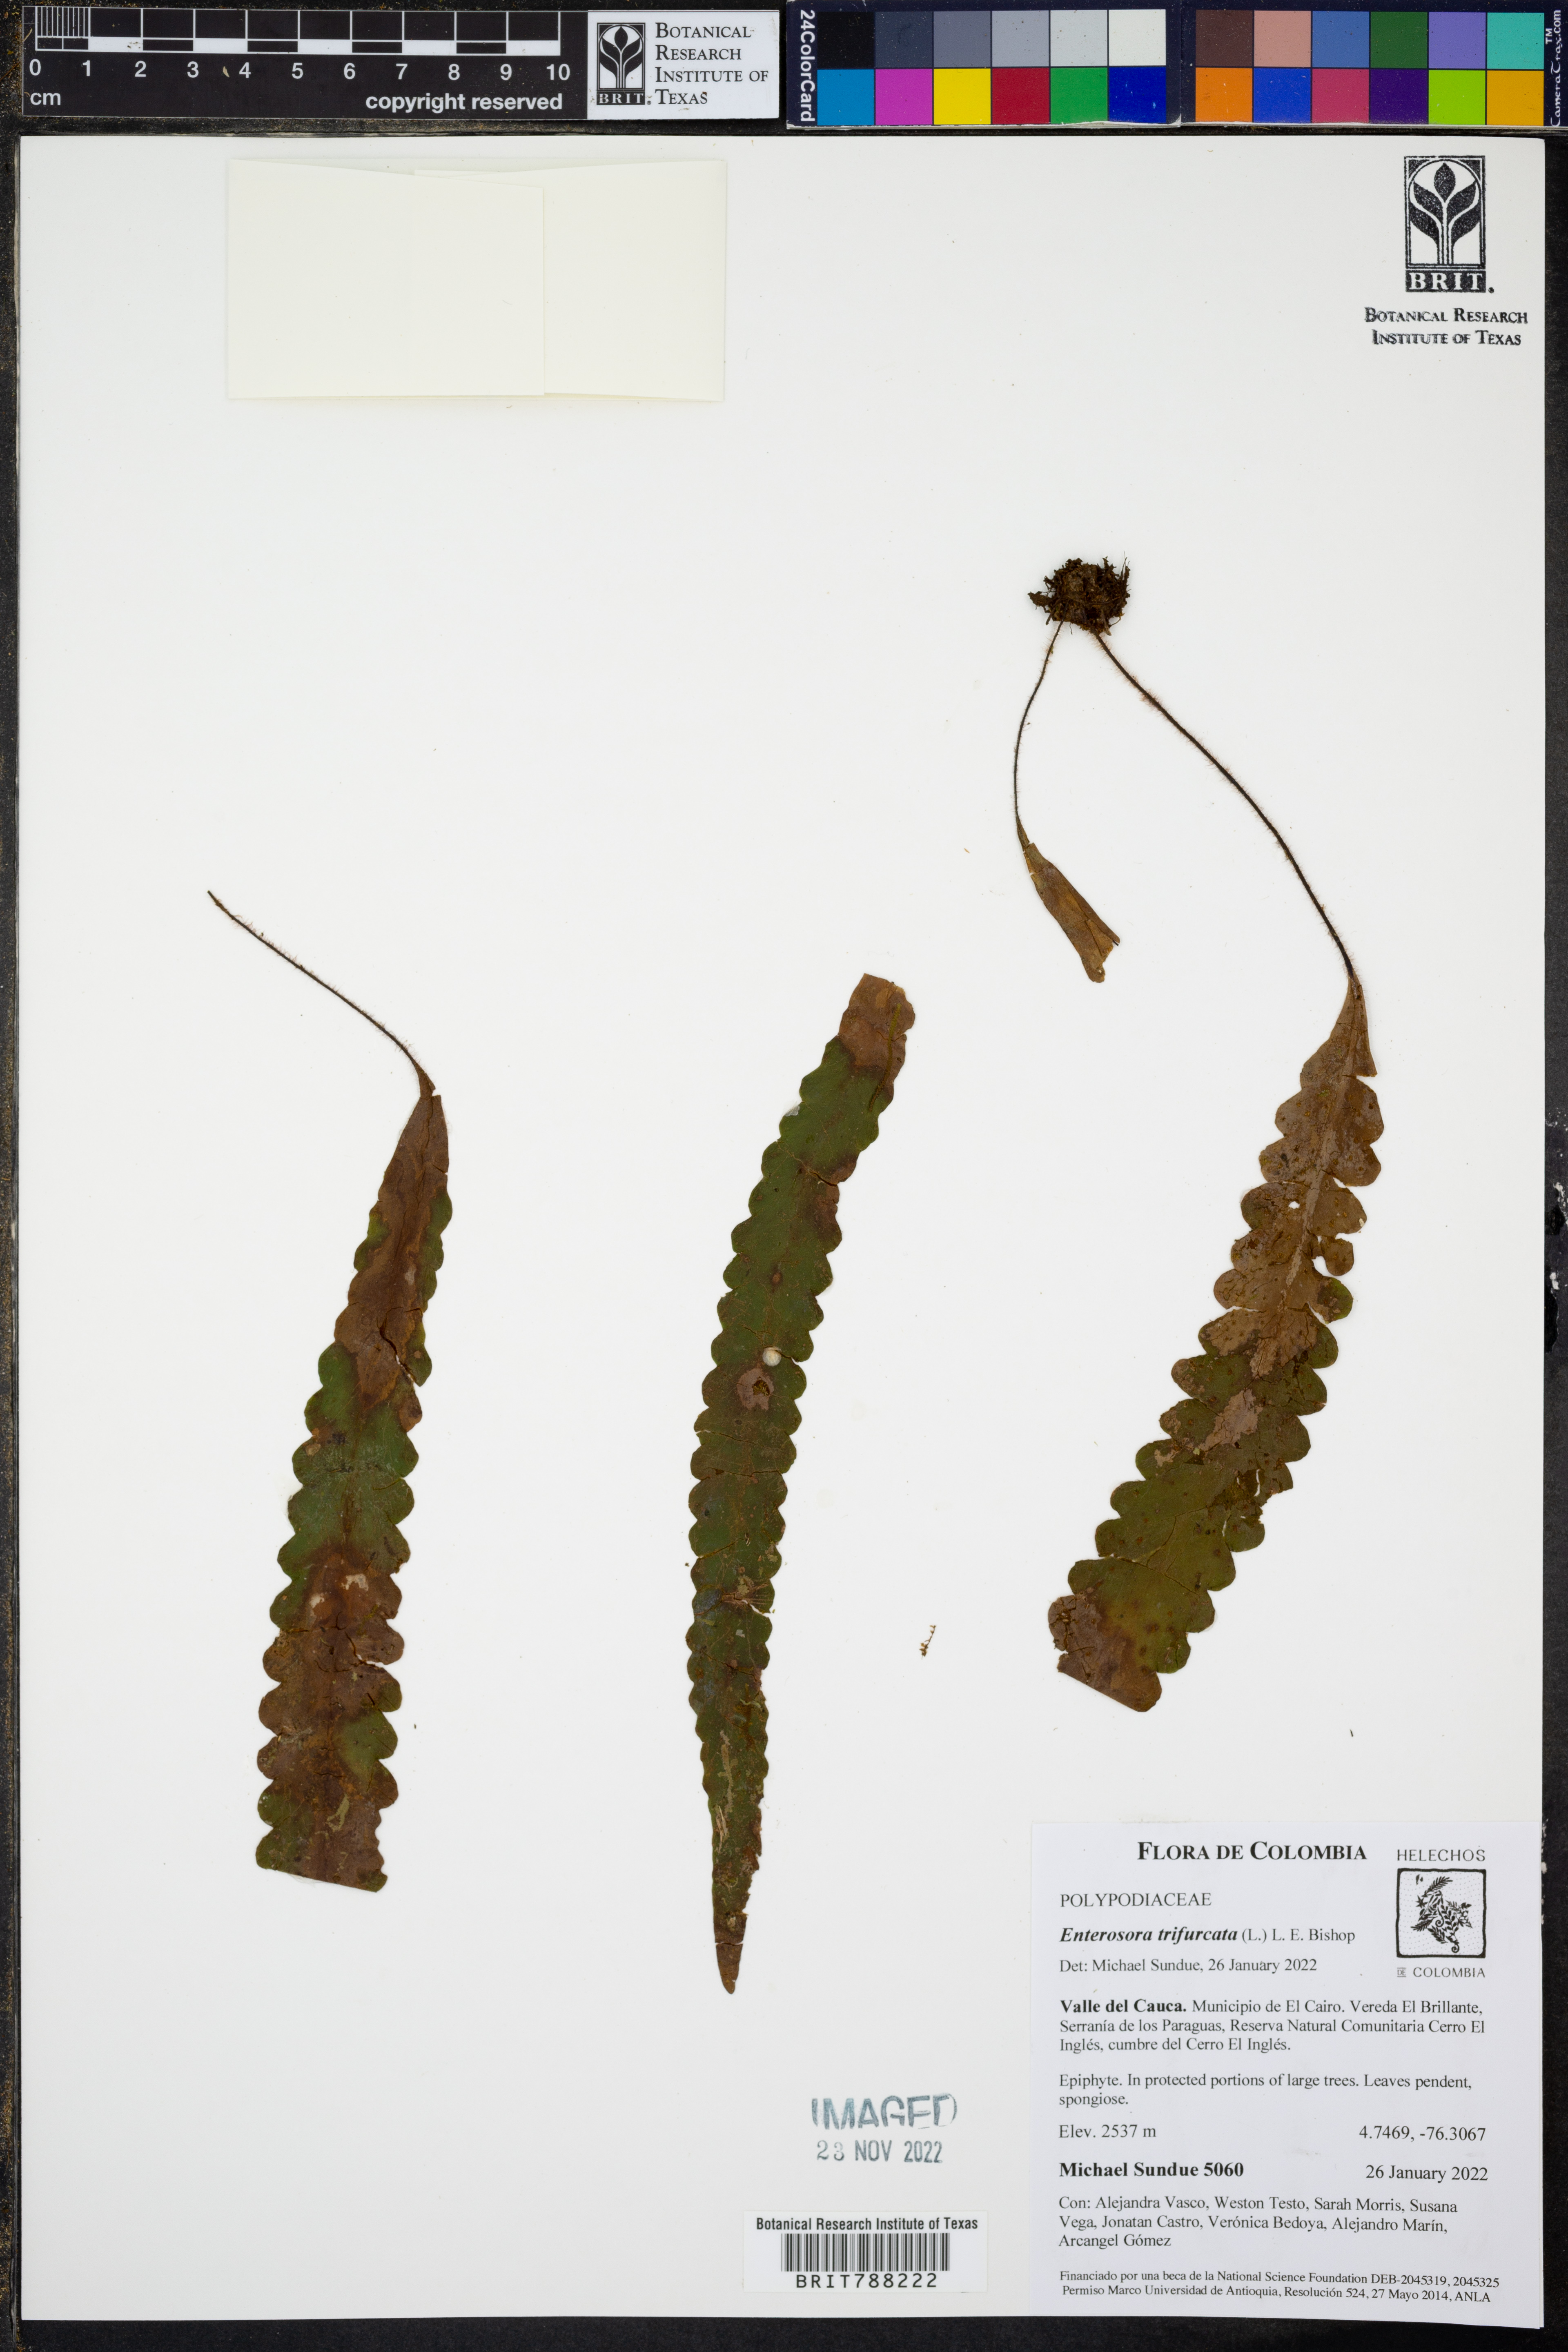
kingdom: Plantae
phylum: Tracheophyta
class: Polypodiopsida
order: Polypodiales
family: Polypodiaceae
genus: Enterosora
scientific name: Enterosora trifurcata
